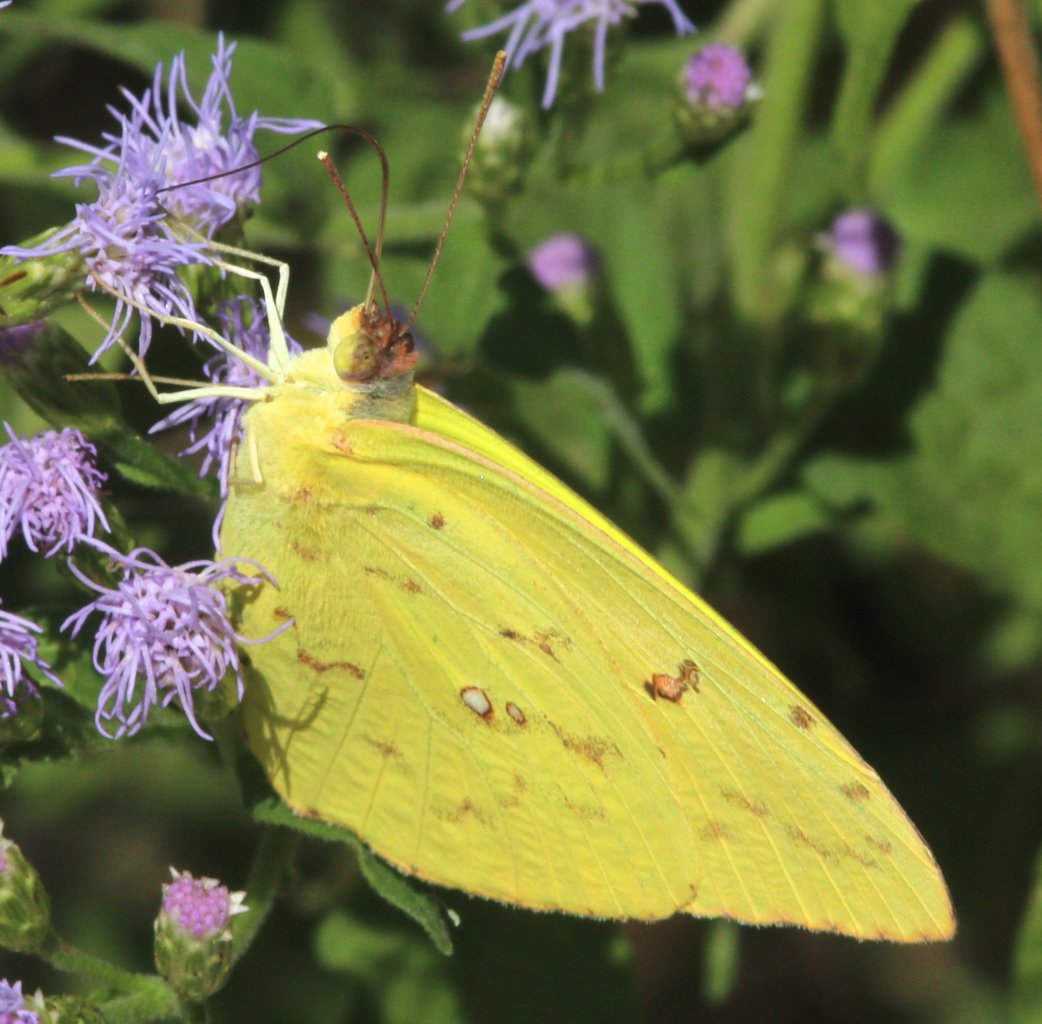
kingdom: Animalia
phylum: Arthropoda
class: Insecta
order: Lepidoptera
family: Pieridae
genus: Phoebis
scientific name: Phoebis sennae
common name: Cloudless Sulphur
